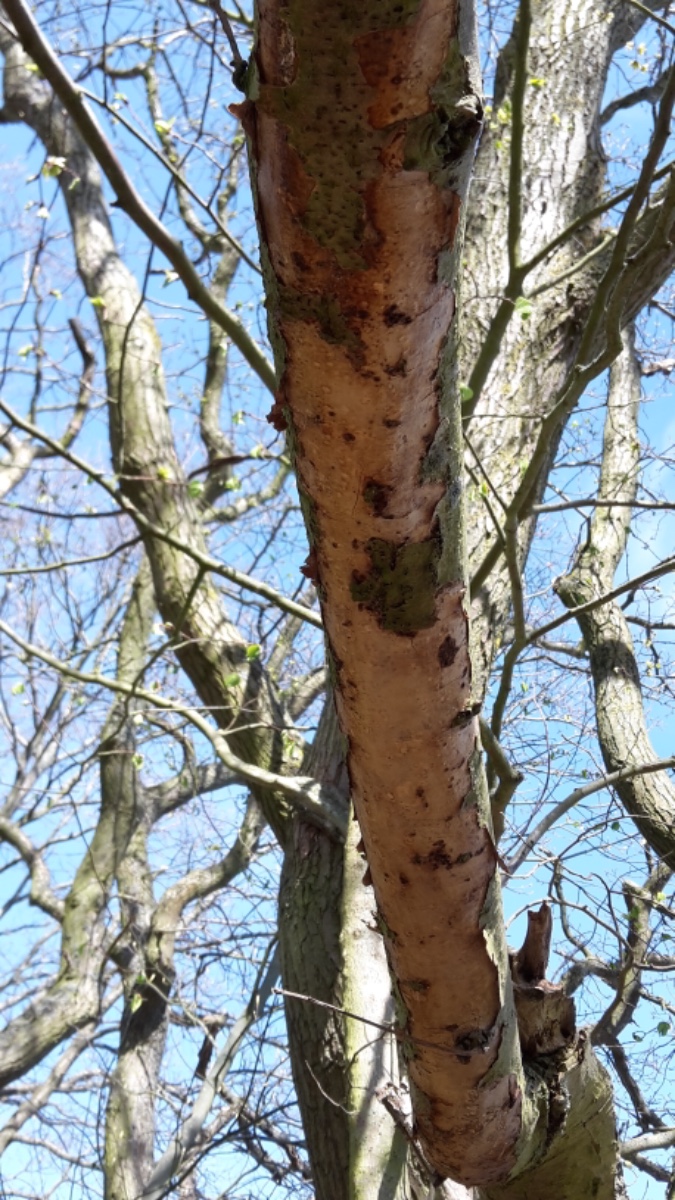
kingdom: Fungi
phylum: Basidiomycota
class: Agaricomycetes
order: Corticiales
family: Vuilleminiaceae
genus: Vuilleminia
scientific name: Vuilleminia comedens
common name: almindelig barksprænger
